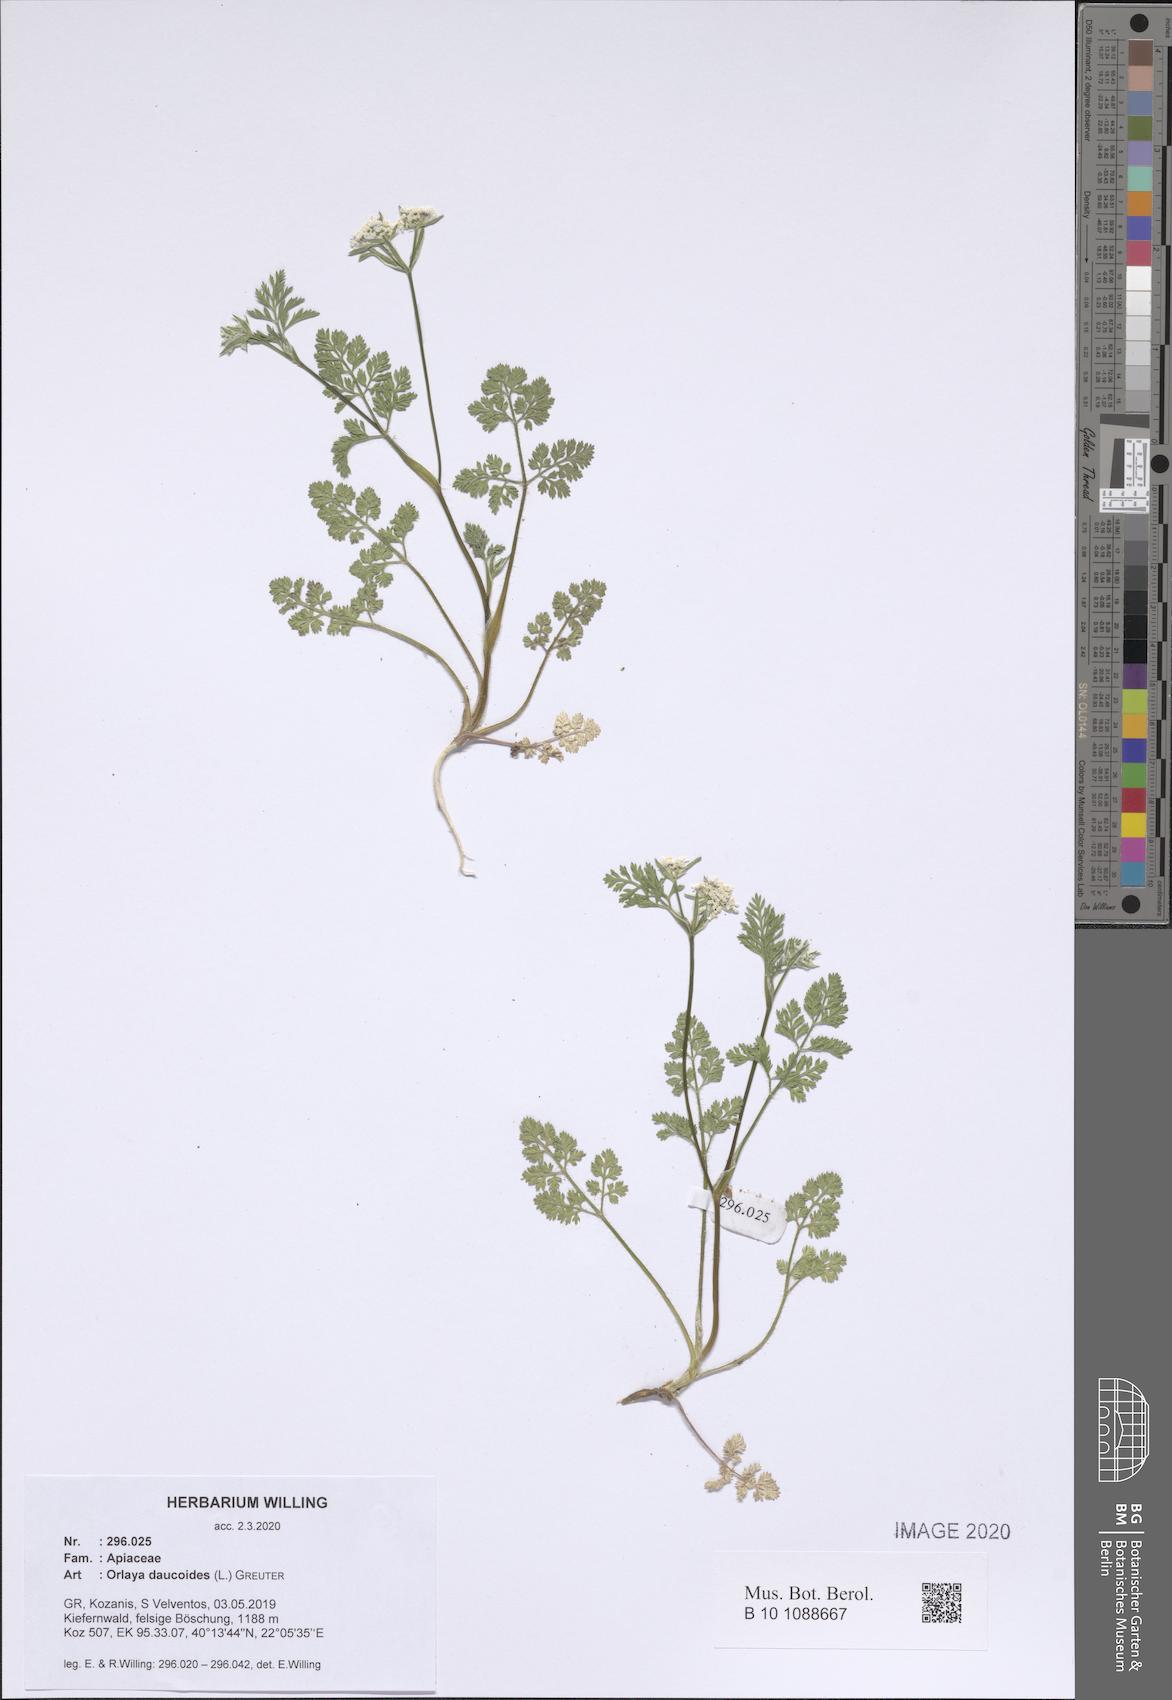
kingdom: Plantae
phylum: Tracheophyta
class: Magnoliopsida
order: Apiales
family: Apiaceae
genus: Orlaya
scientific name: Orlaya daucoides
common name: Flat-fruit orlaya
